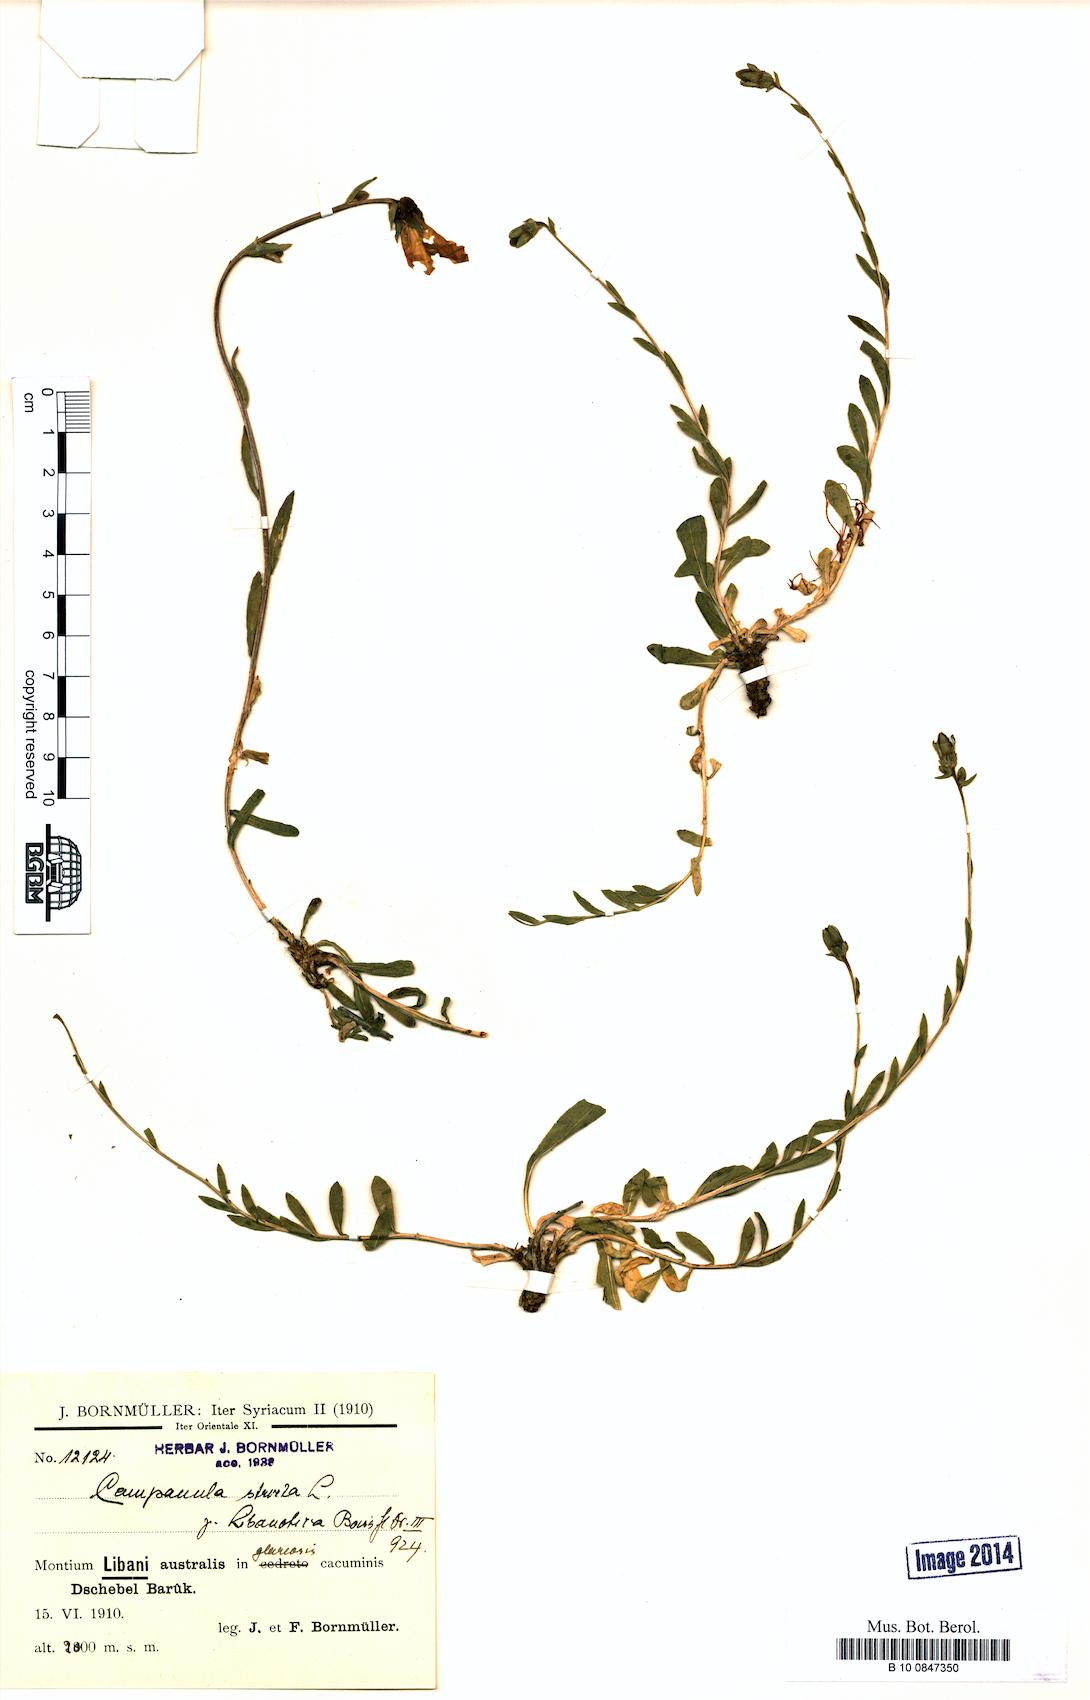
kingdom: Plantae
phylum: Tracheophyta
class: Magnoliopsida
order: Asterales
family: Campanulaceae
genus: Campanula
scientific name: Campanula stricta
